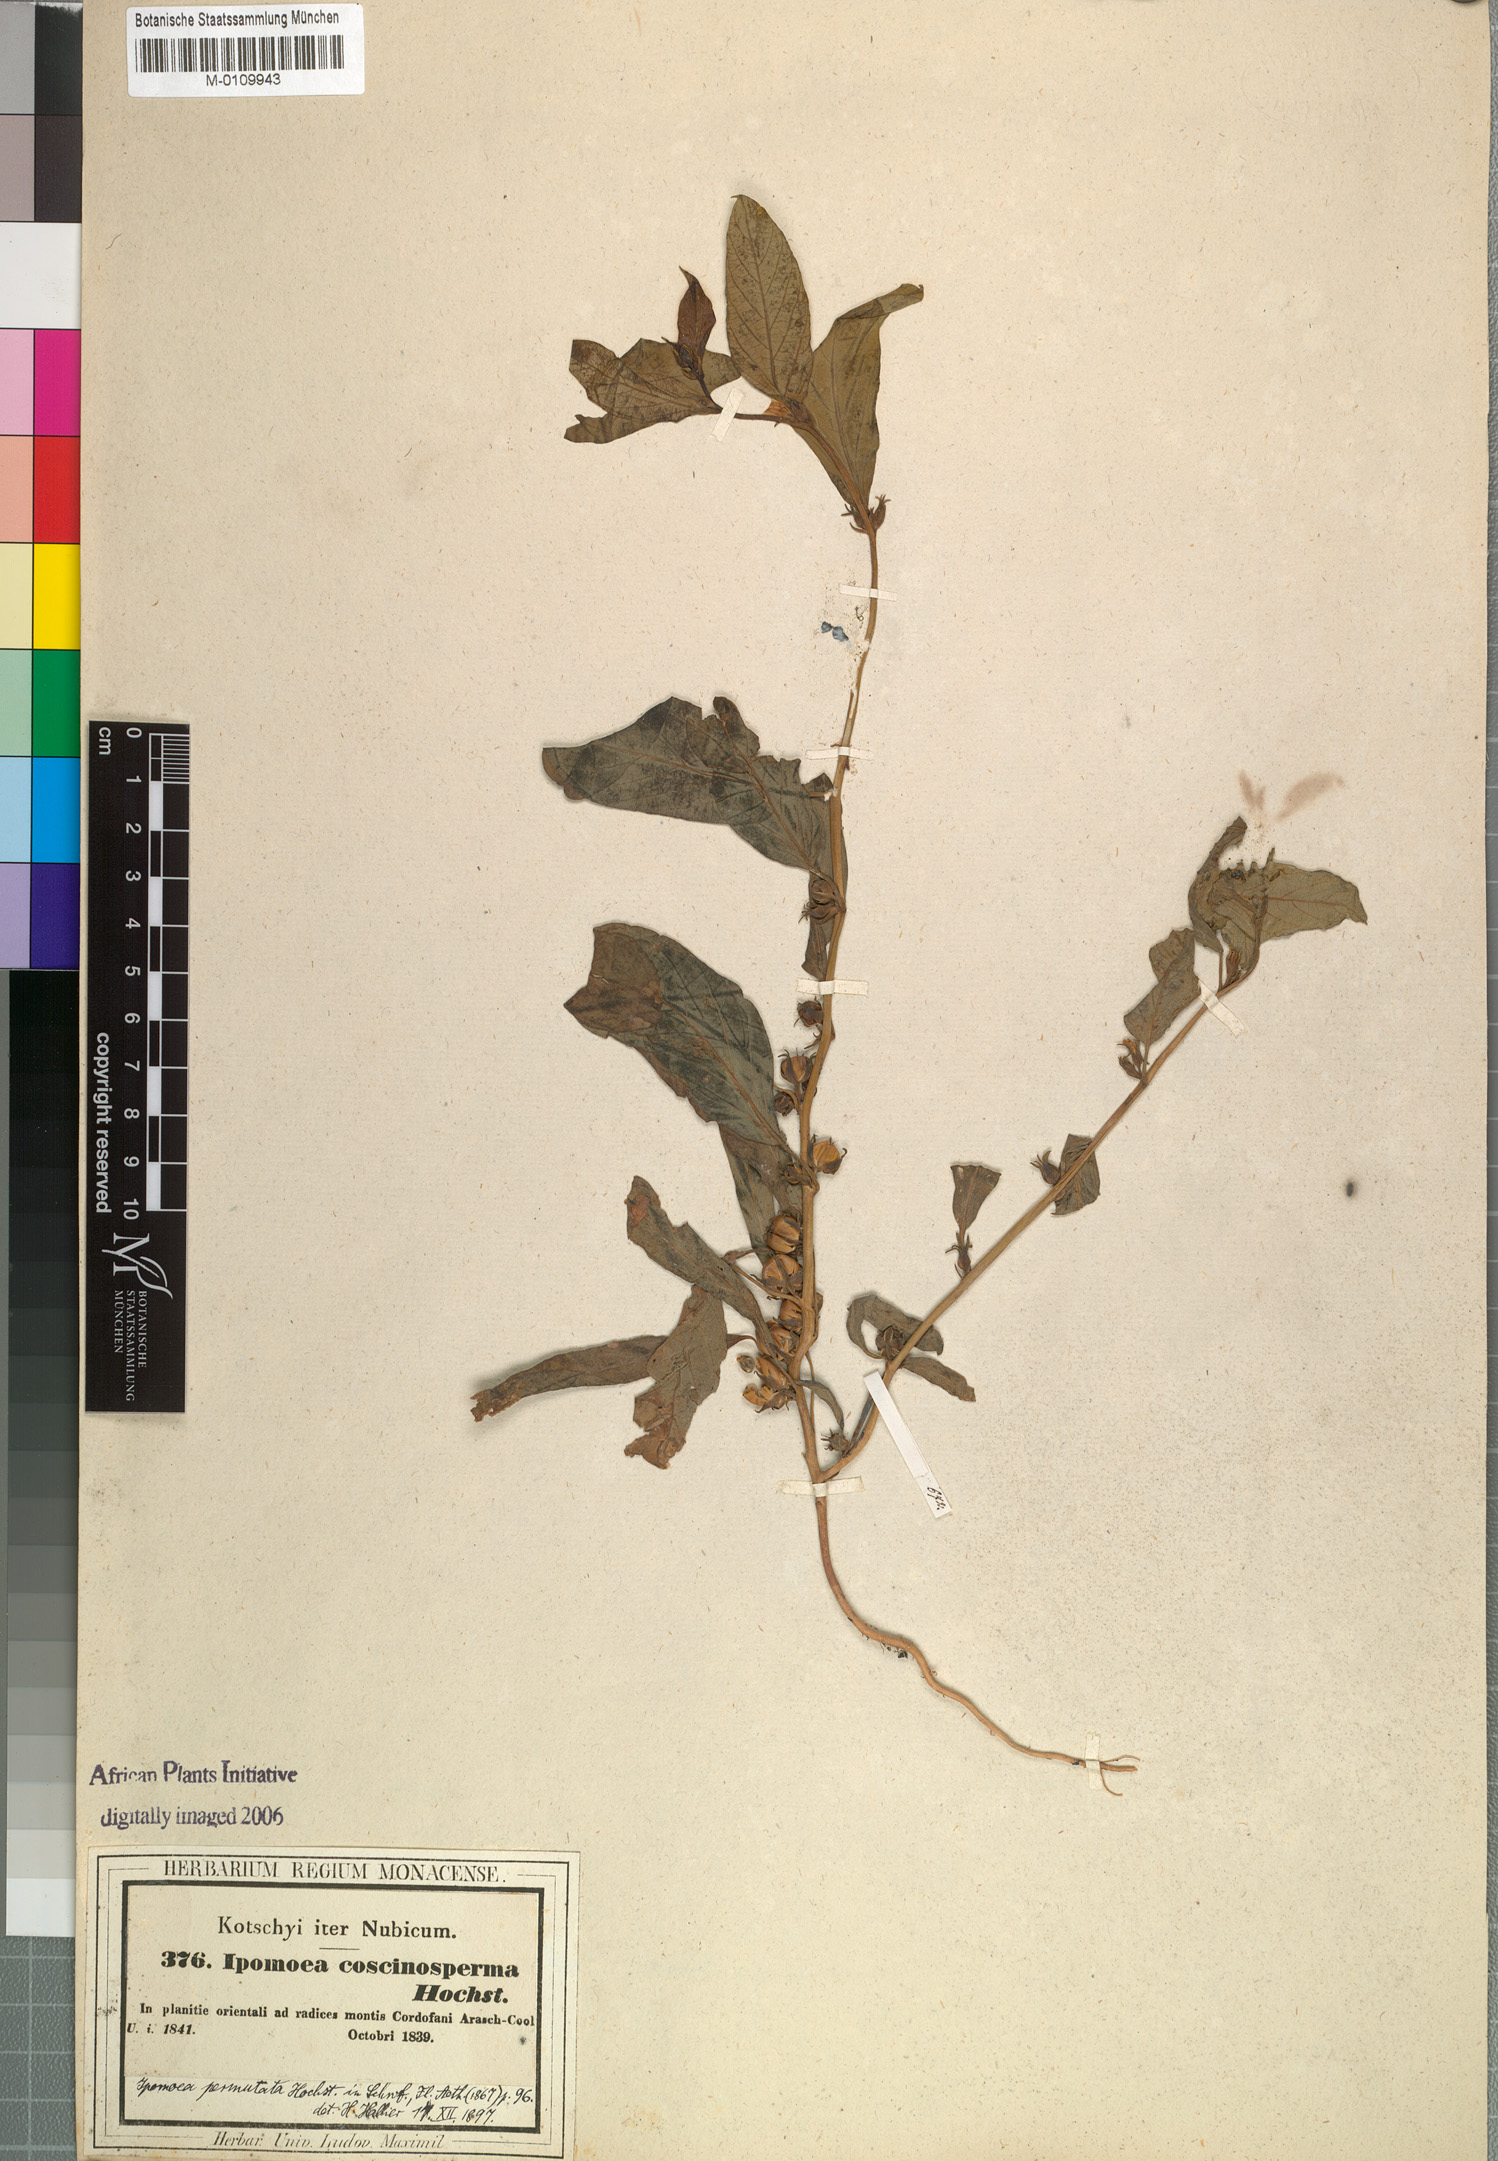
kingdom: Plantae
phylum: Tracheophyta
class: Magnoliopsida
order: Solanales
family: Convolvulaceae
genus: Ipomoea
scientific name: Ipomoea coscinosperma
